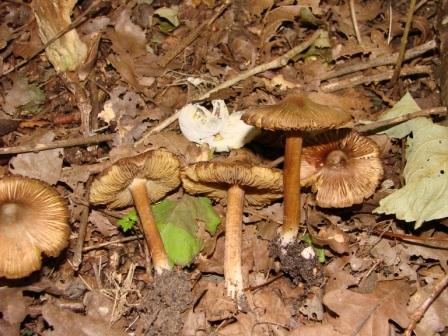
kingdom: Fungi
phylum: Basidiomycota
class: Agaricomycetes
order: Agaricales
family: Inocybaceae
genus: Inosperma
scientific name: Inosperma
